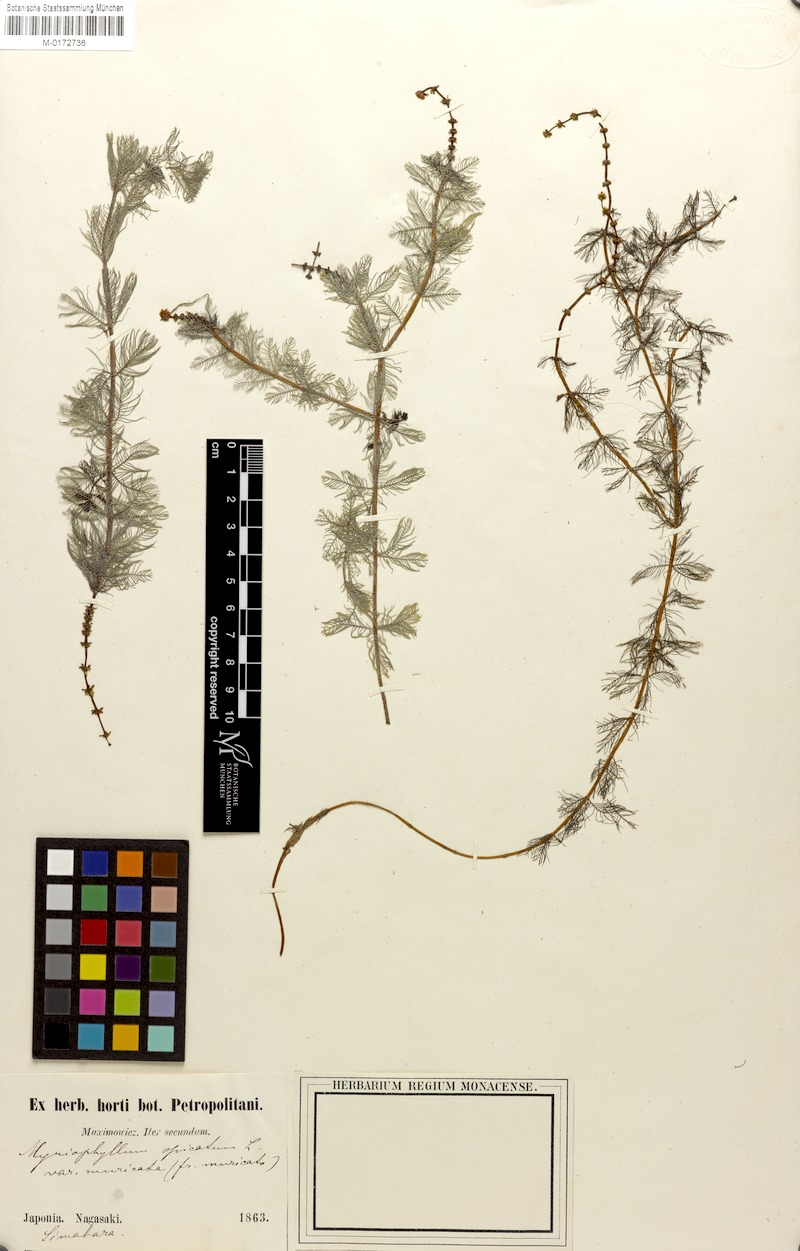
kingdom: Plantae
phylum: Tracheophyta
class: Magnoliopsida
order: Saxifragales
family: Haloragaceae
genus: Myriophyllum
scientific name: Myriophyllum sibiricum
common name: Siberian water-milfoil
